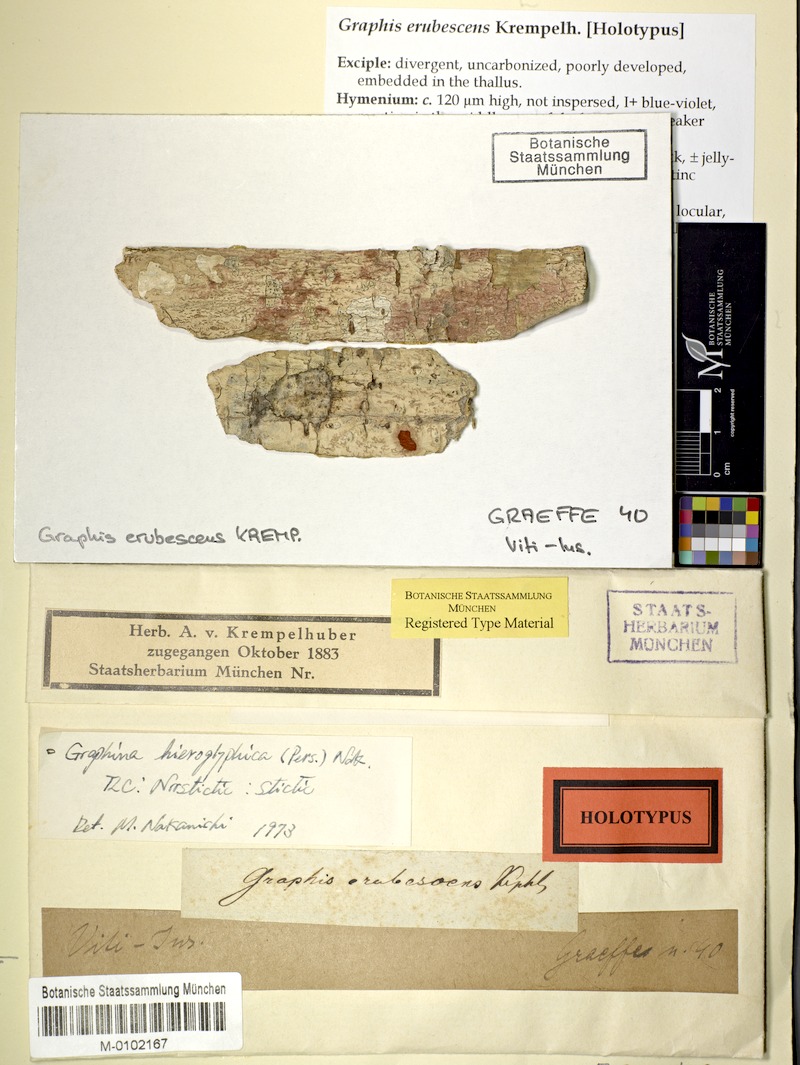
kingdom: Fungi
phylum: Ascomycota
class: Lecanoromycetes
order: Ostropales
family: Graphidaceae
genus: Diorygma
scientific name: Diorygma hieroglyphicum
